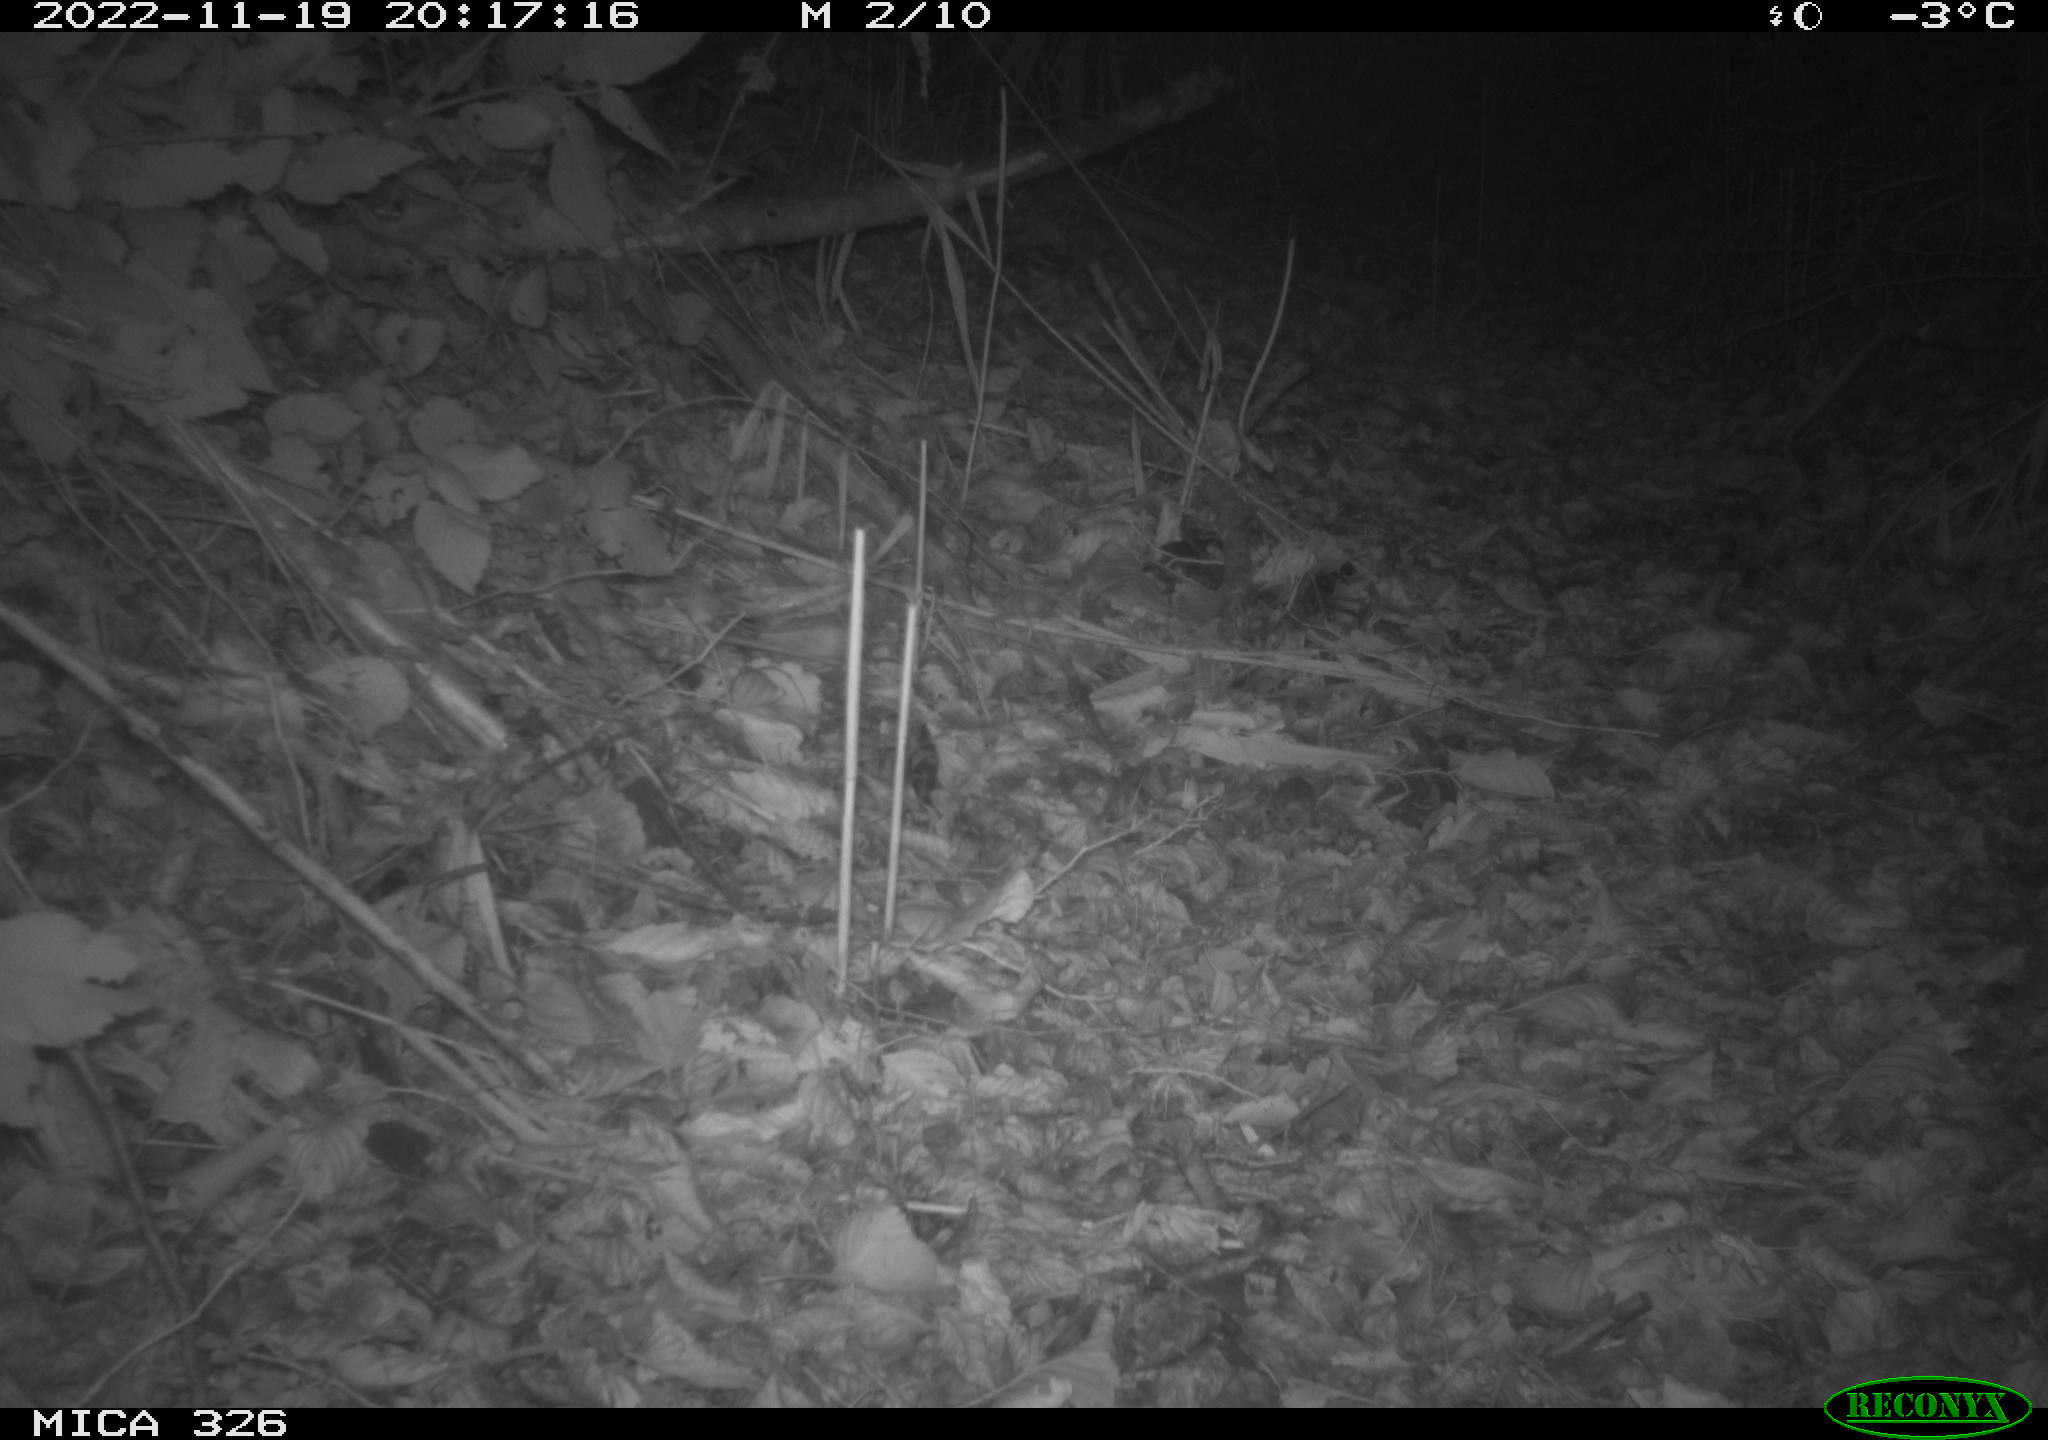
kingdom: Animalia
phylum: Chordata
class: Mammalia
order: Rodentia
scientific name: Rodentia
